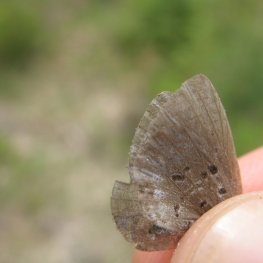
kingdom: Animalia
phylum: Arthropoda
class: Insecta
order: Lepidoptera
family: Lycaenidae
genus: Celastrina
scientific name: Celastrina lucia
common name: Northern Spring Azure
